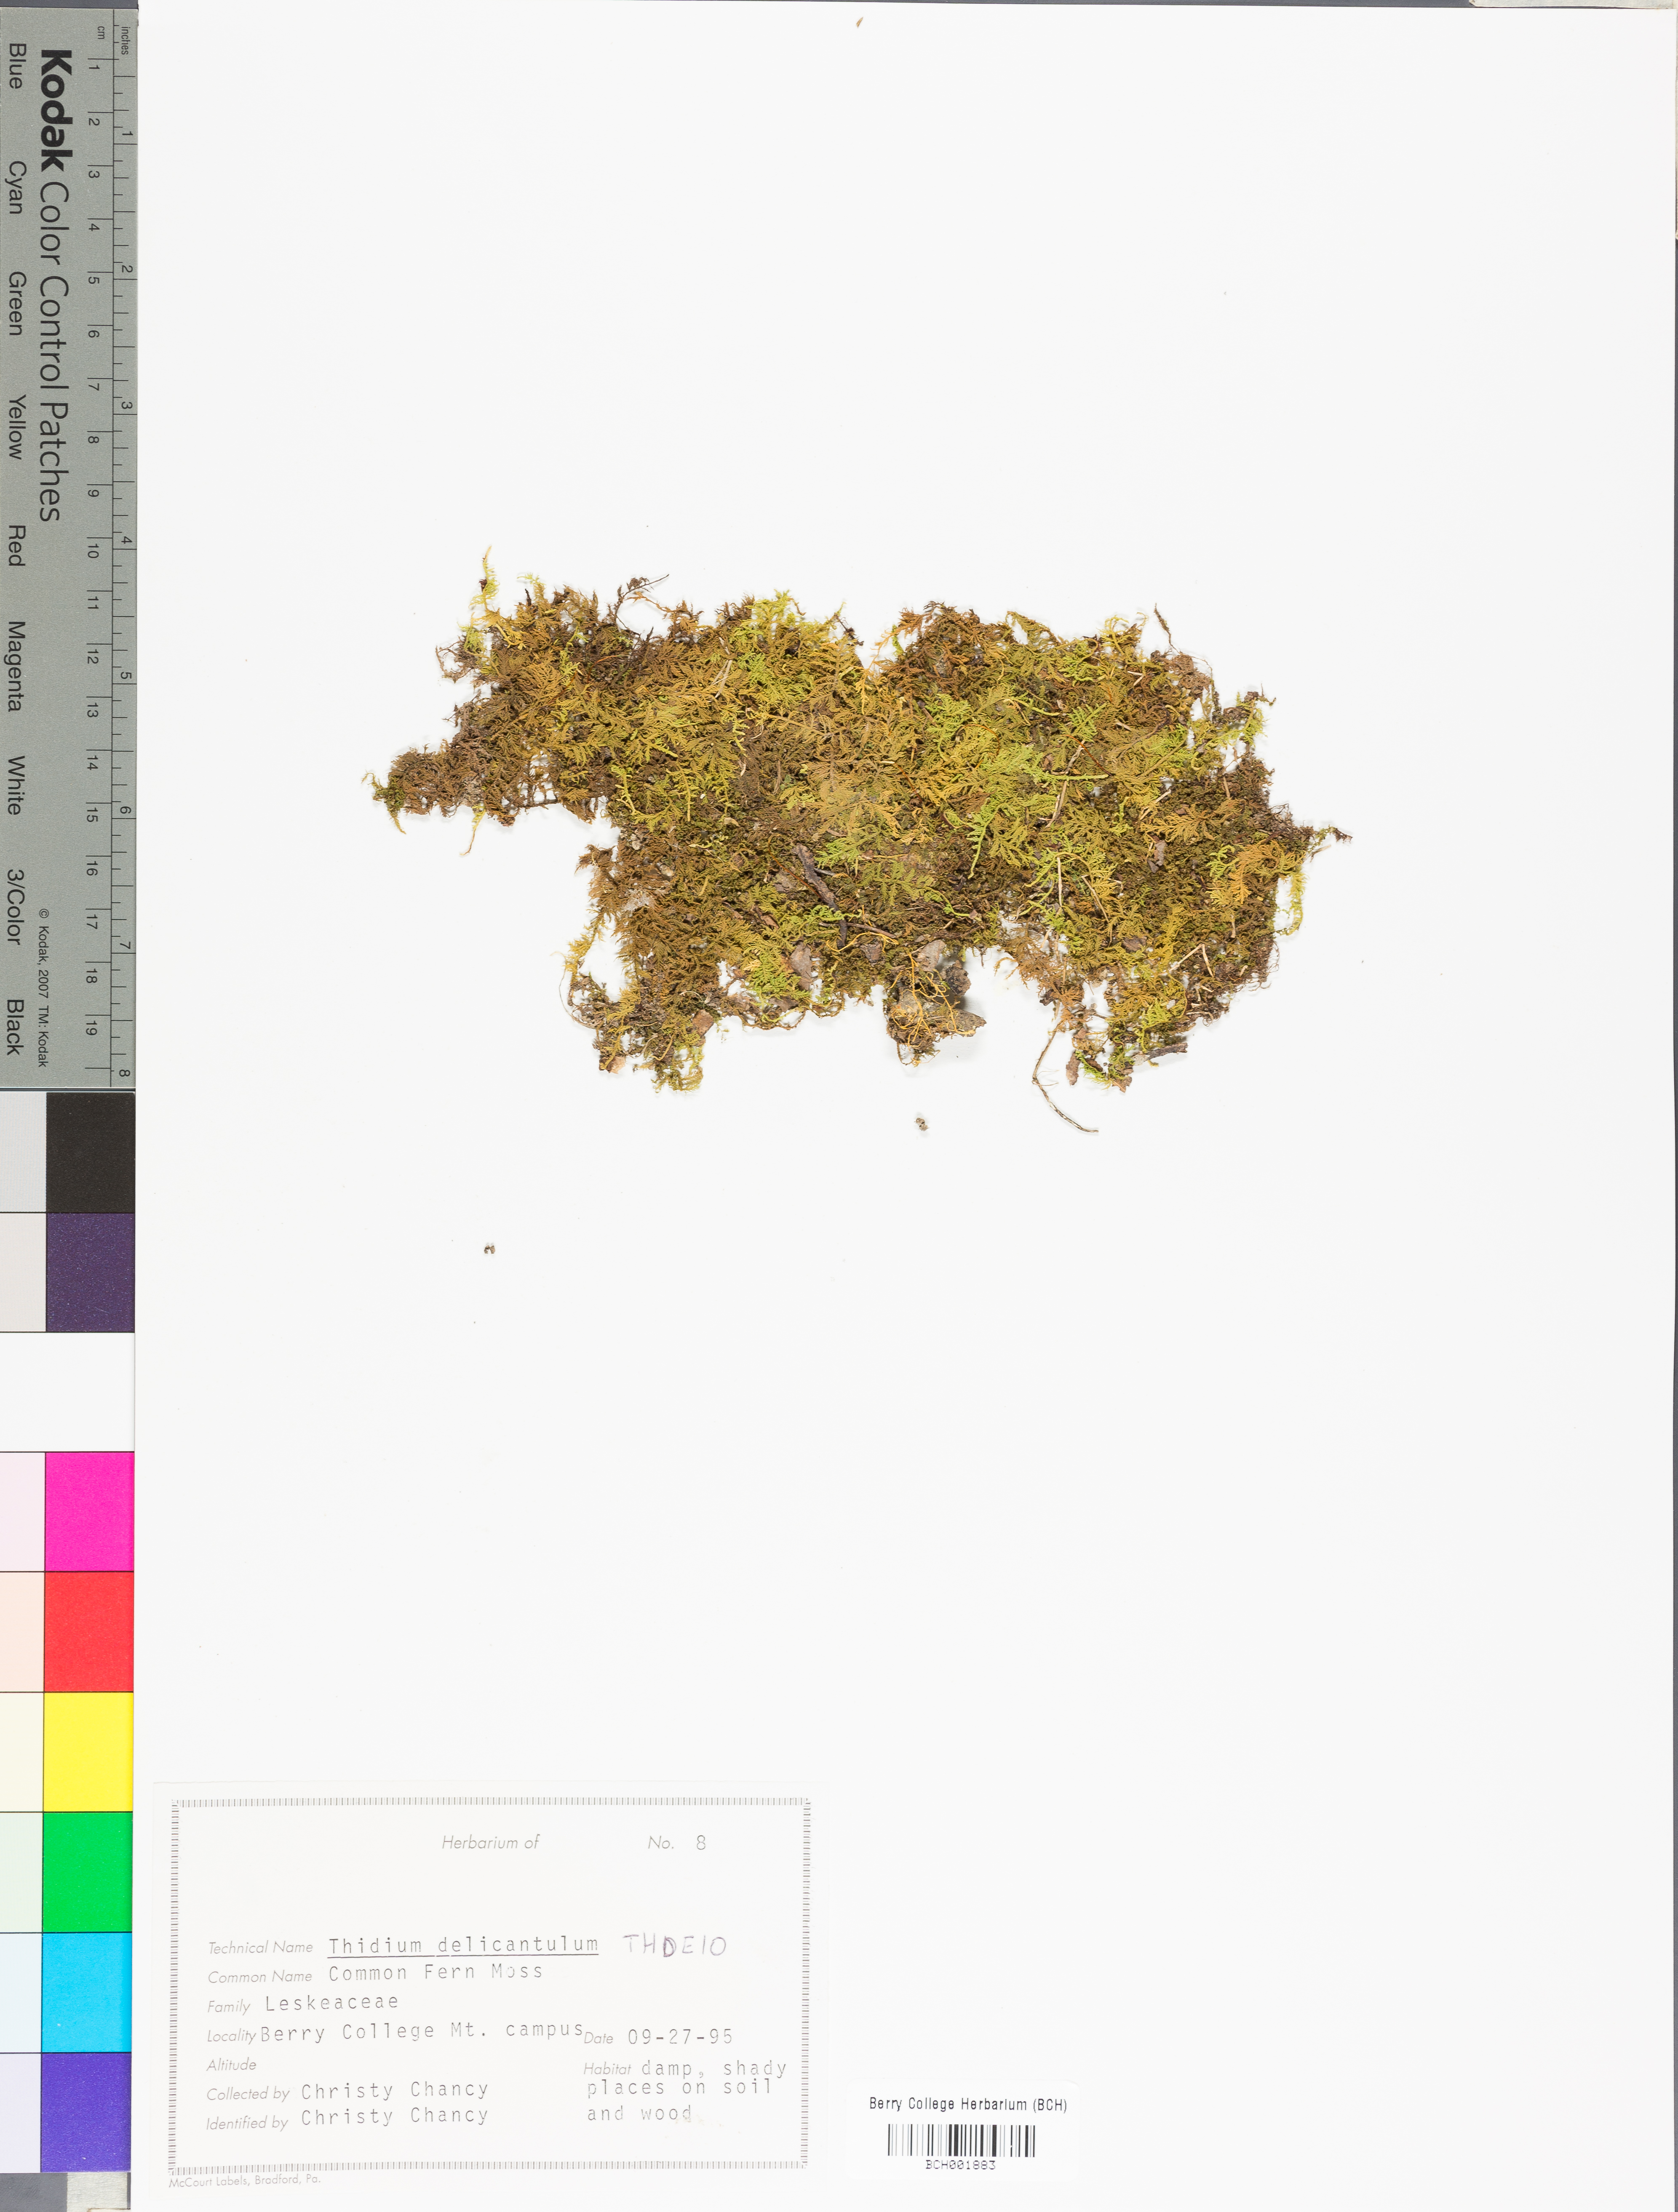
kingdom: Plantae
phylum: Bryophyta
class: Bryopsida
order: Hypnales
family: Thuidiaceae
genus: Thuidium
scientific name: Thuidium delicatulum
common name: Delicate fern moss
